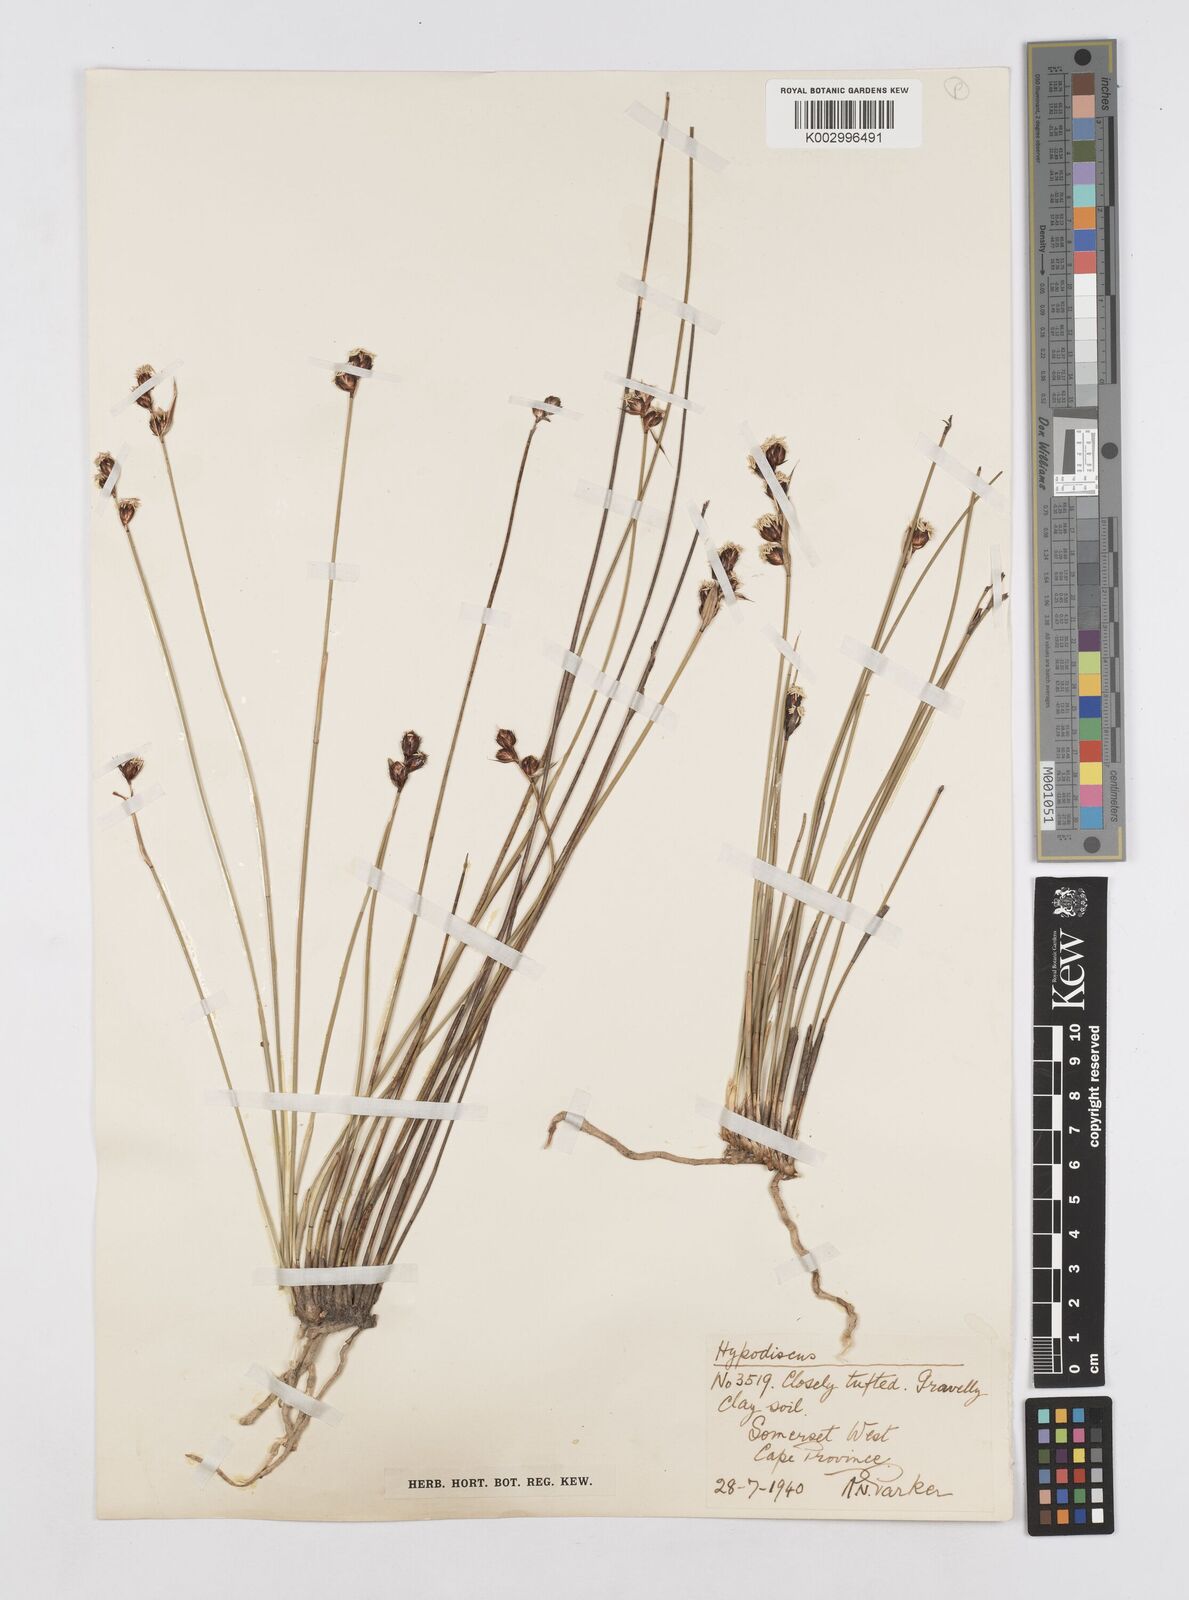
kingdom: Plantae
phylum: Tracheophyta
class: Liliopsida
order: Poales
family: Restionaceae
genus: Hypodiscus
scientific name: Hypodiscus rugosus
